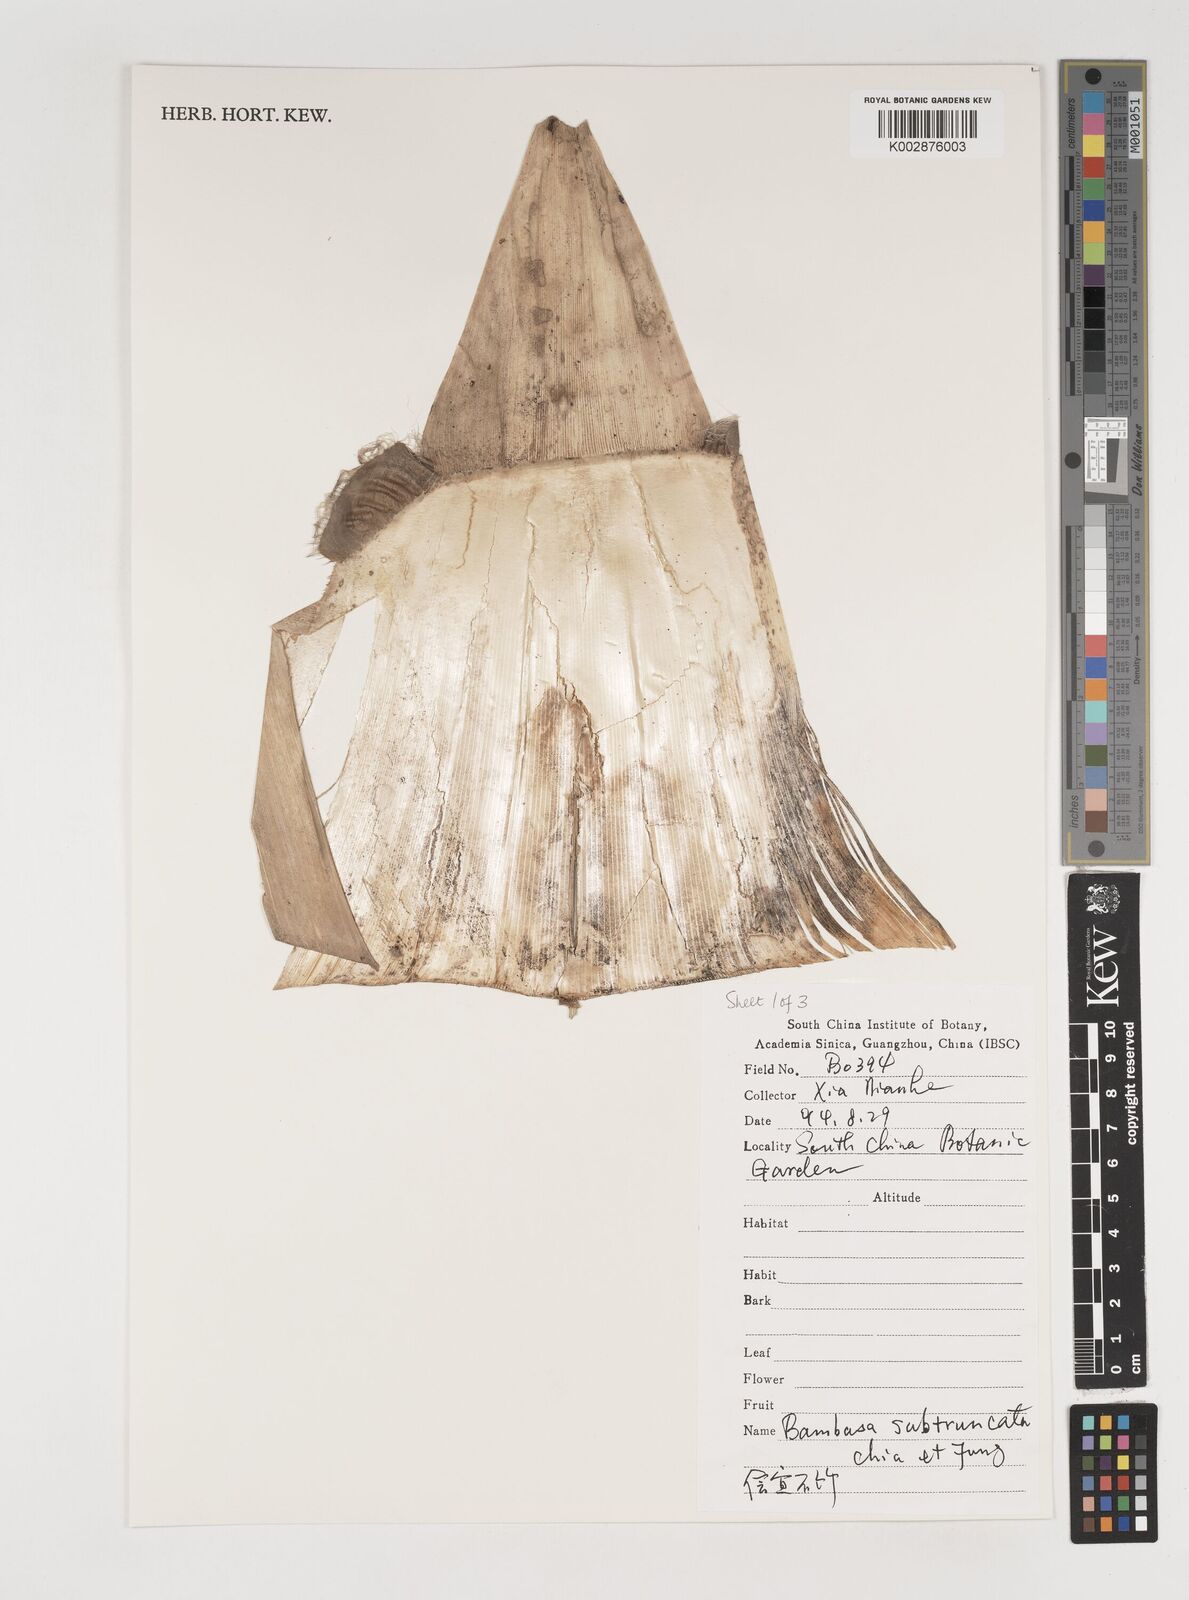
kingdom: Plantae
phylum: Tracheophyta
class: Liliopsida
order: Poales
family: Poaceae
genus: Bambusa
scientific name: Bambusa subtruncata
